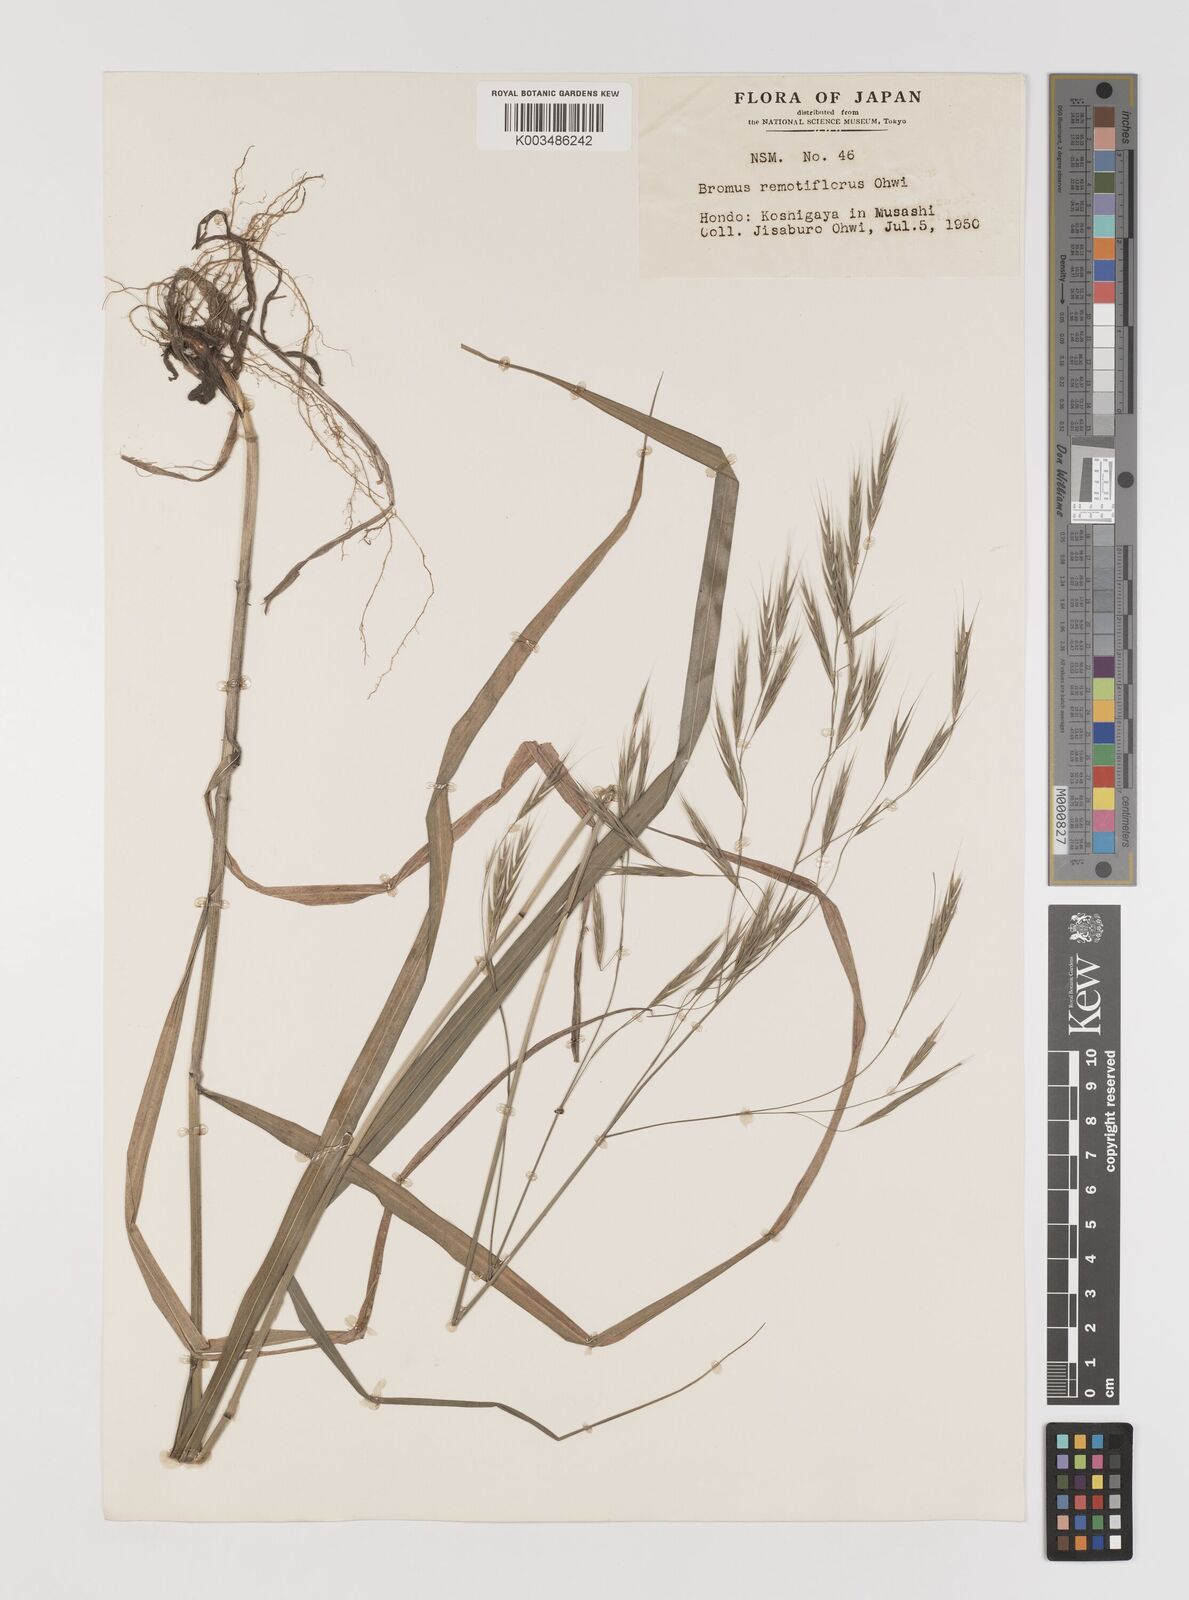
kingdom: Plantae
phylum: Tracheophyta
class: Liliopsida
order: Poales
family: Poaceae
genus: Bromus
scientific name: Bromus remotiflorus
